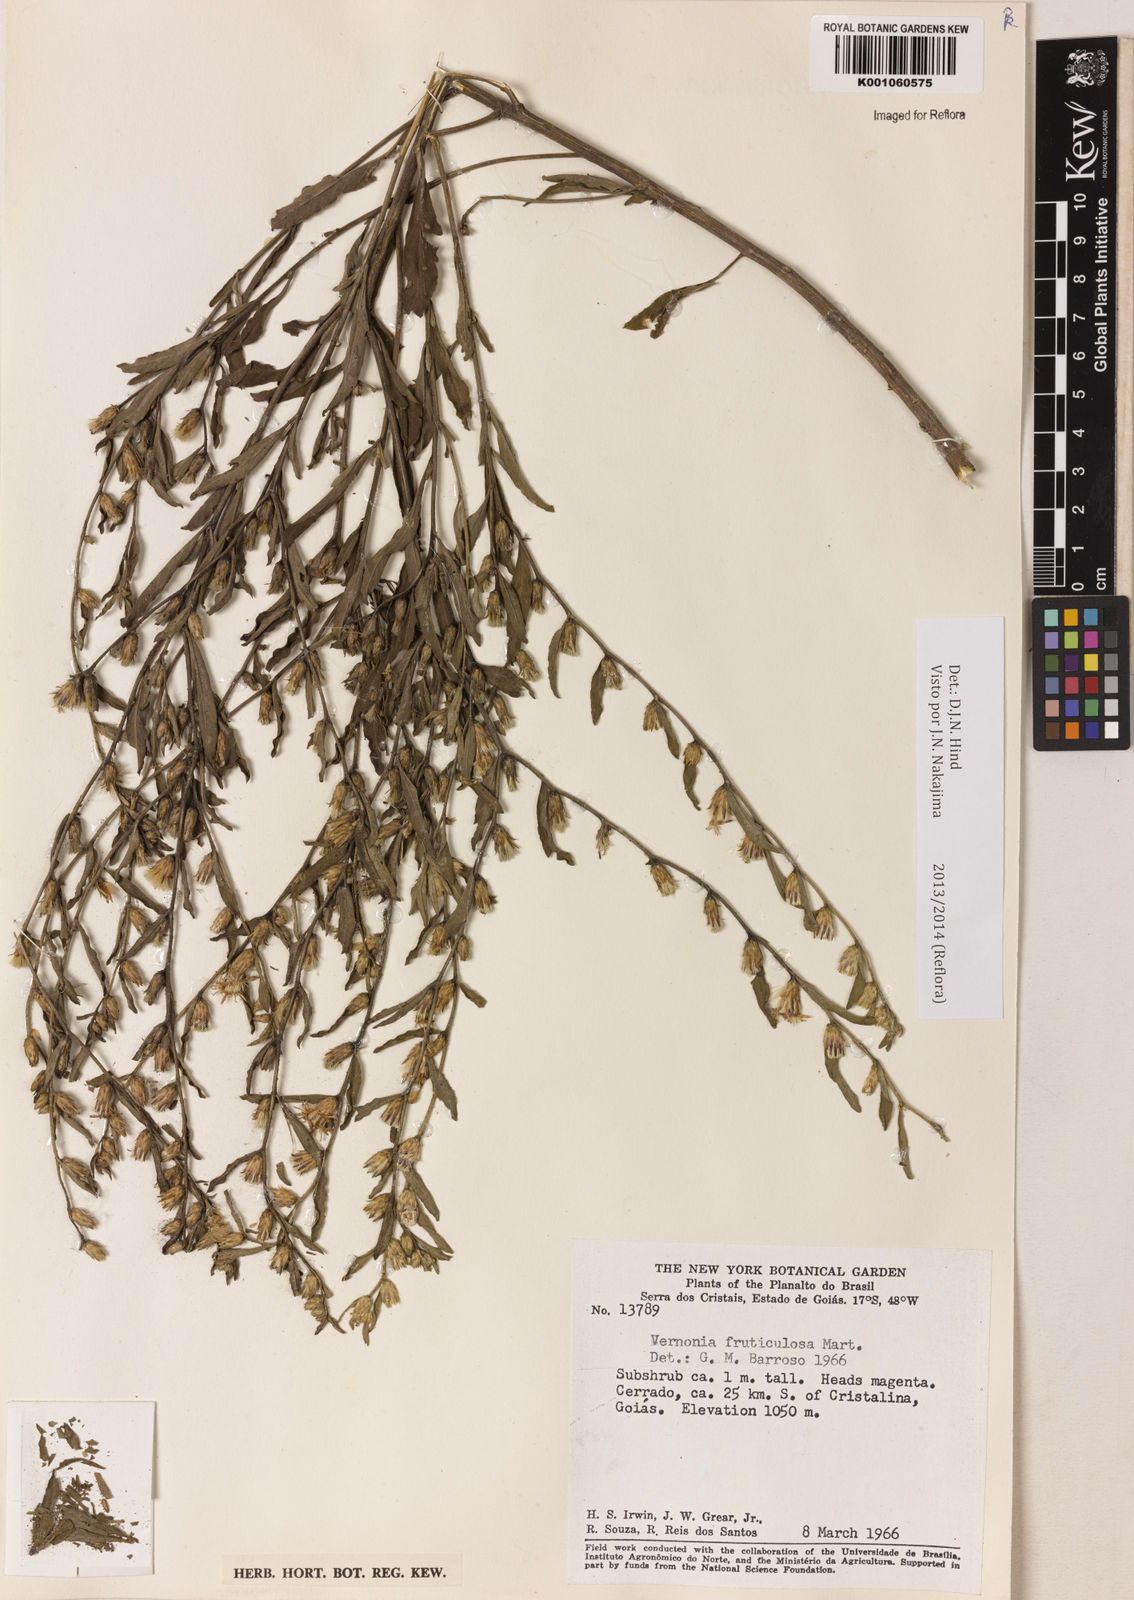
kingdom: Plantae
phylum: Tracheophyta
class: Magnoliopsida
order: Asterales
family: Asteraceae
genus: Lepidaploa
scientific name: Lepidaploa rufogrisea
